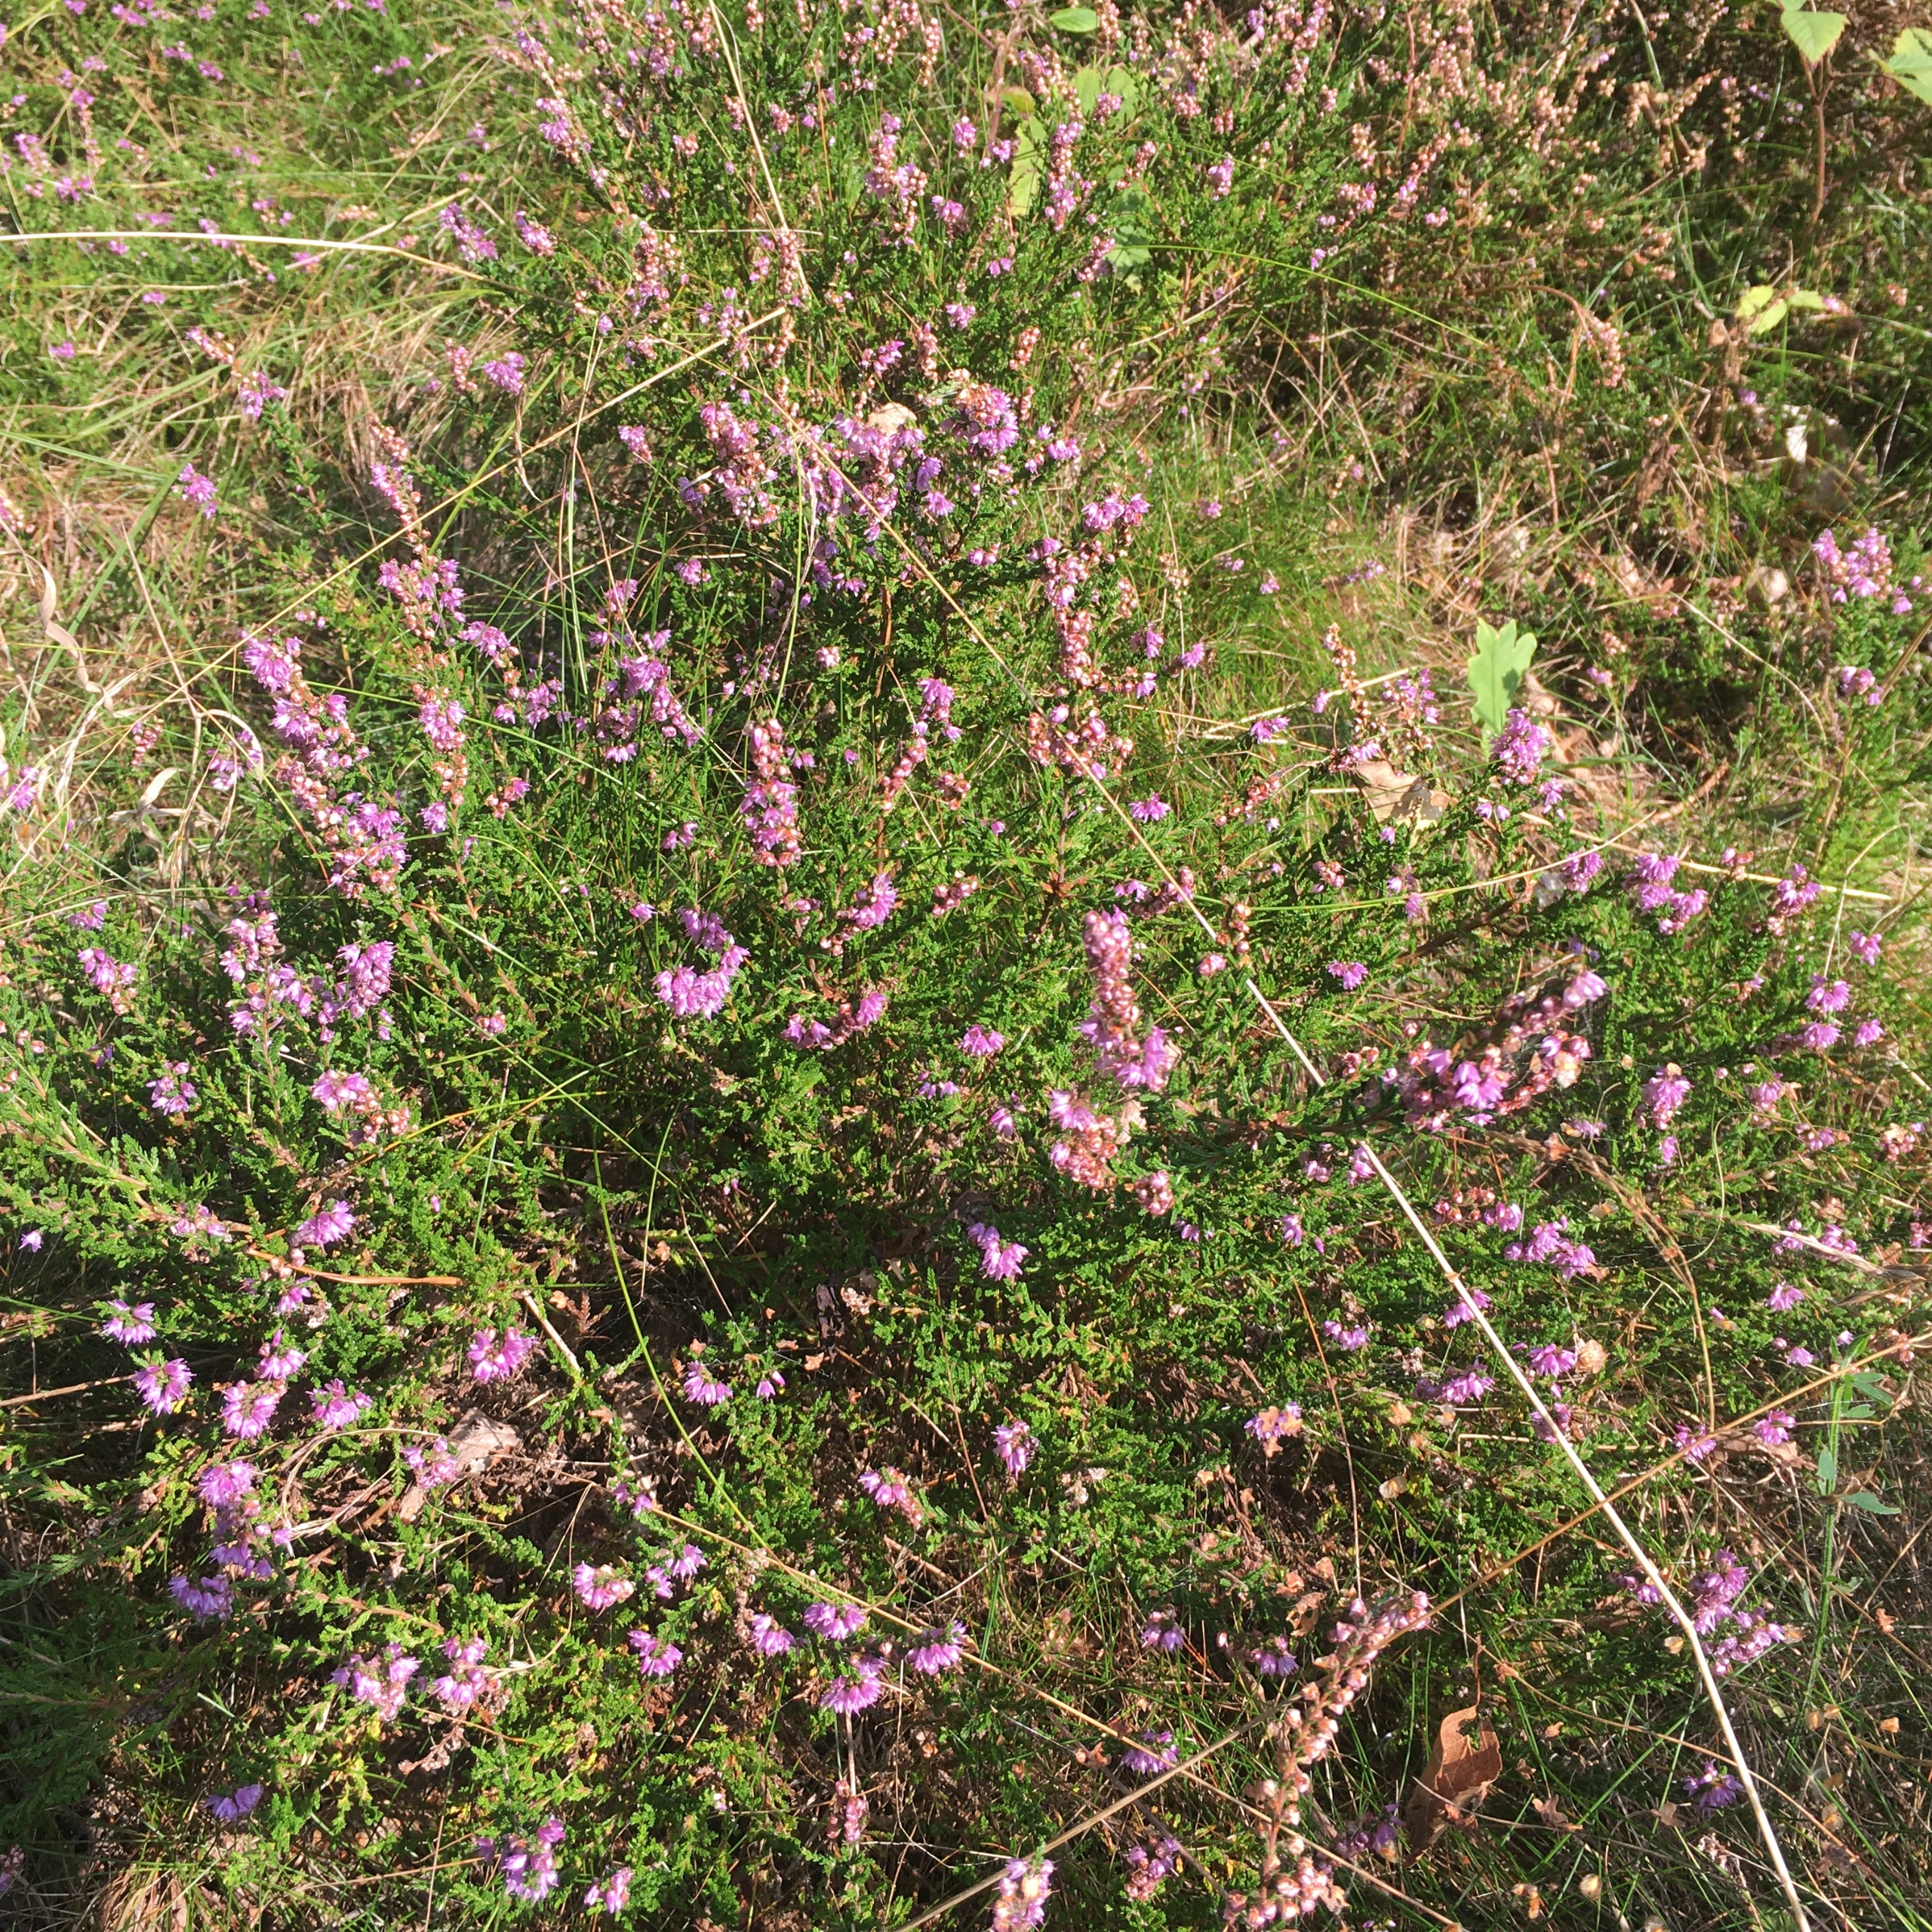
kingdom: Plantae
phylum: Tracheophyta
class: Magnoliopsida
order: Ericales
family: Ericaceae
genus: Calluna
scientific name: Calluna vulgaris
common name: Hedelyng
